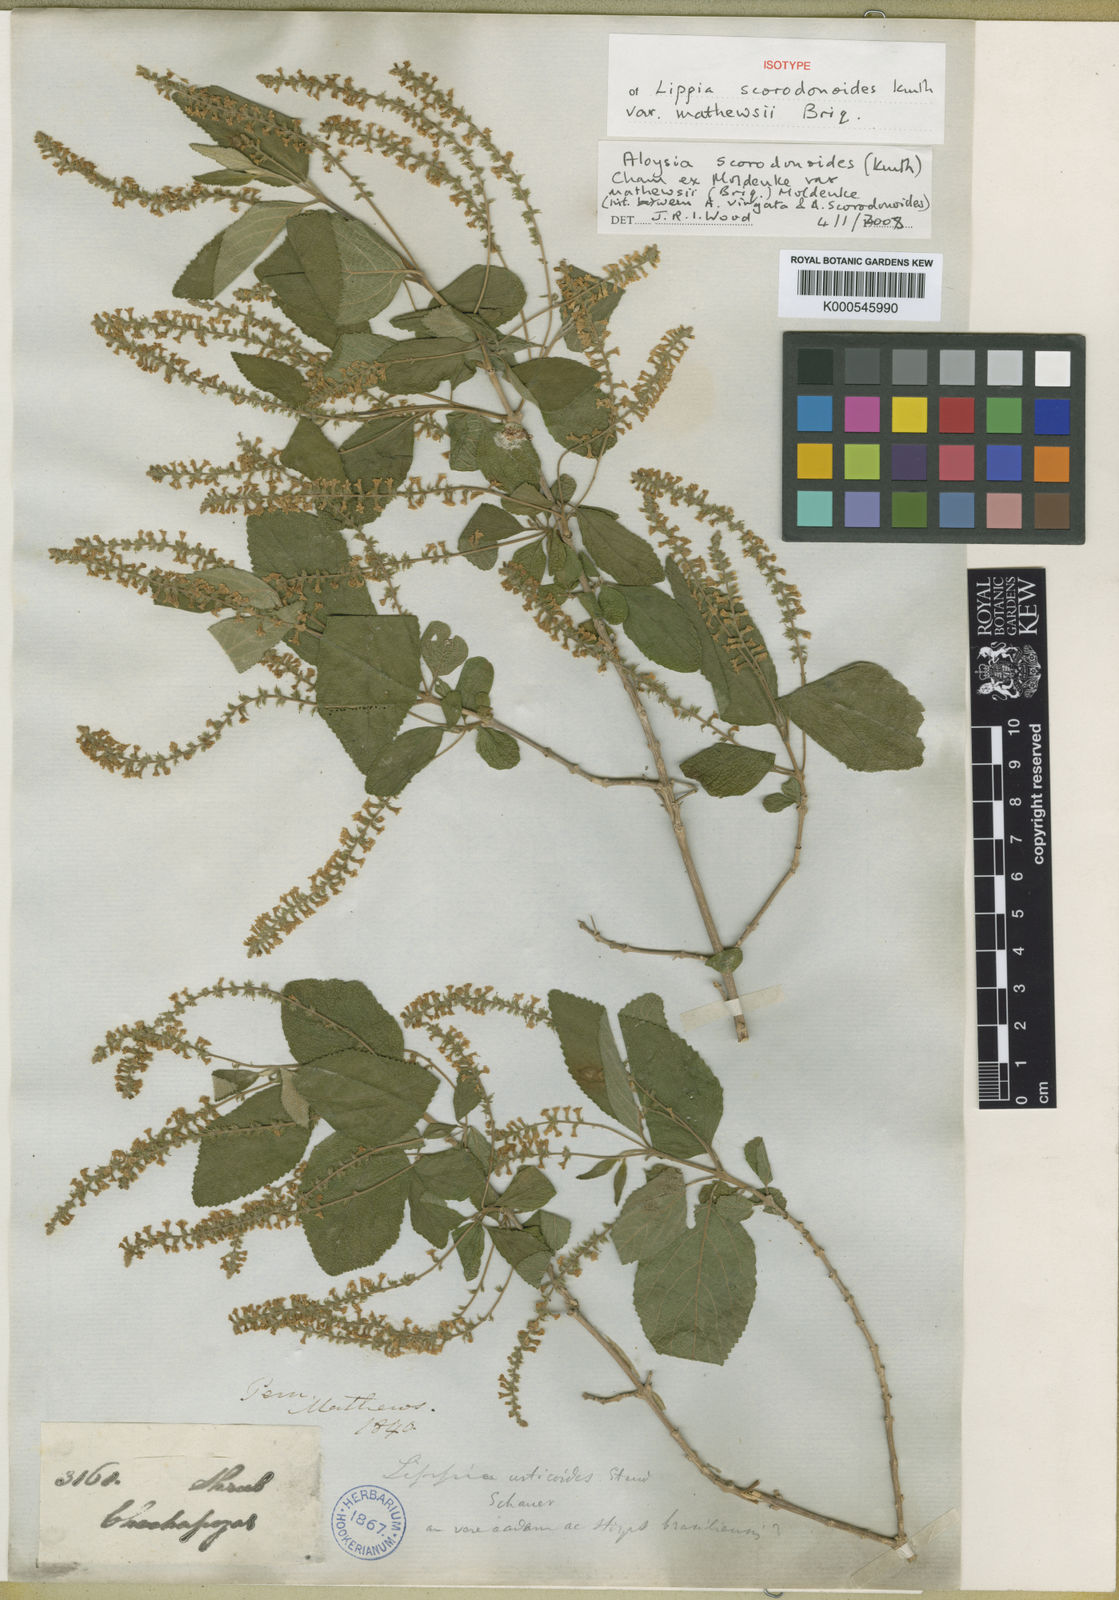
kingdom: Plantae
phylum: Tracheophyta
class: Magnoliopsida
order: Lamiales
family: Verbenaceae
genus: Aloysia
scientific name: Aloysia scorodonioides
